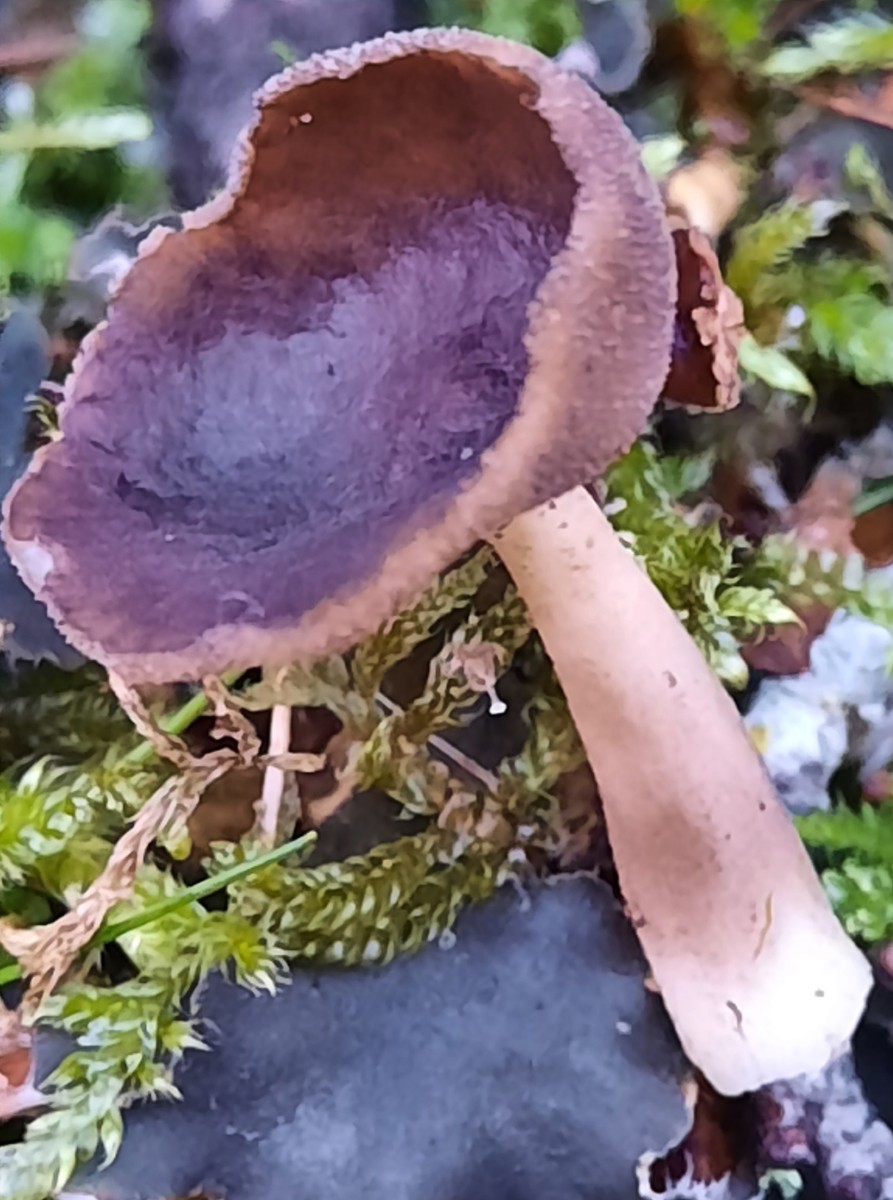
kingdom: Fungi
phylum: Ascomycota
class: Pezizomycetes
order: Pezizales
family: Helvellaceae
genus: Helvella
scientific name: Helvella
